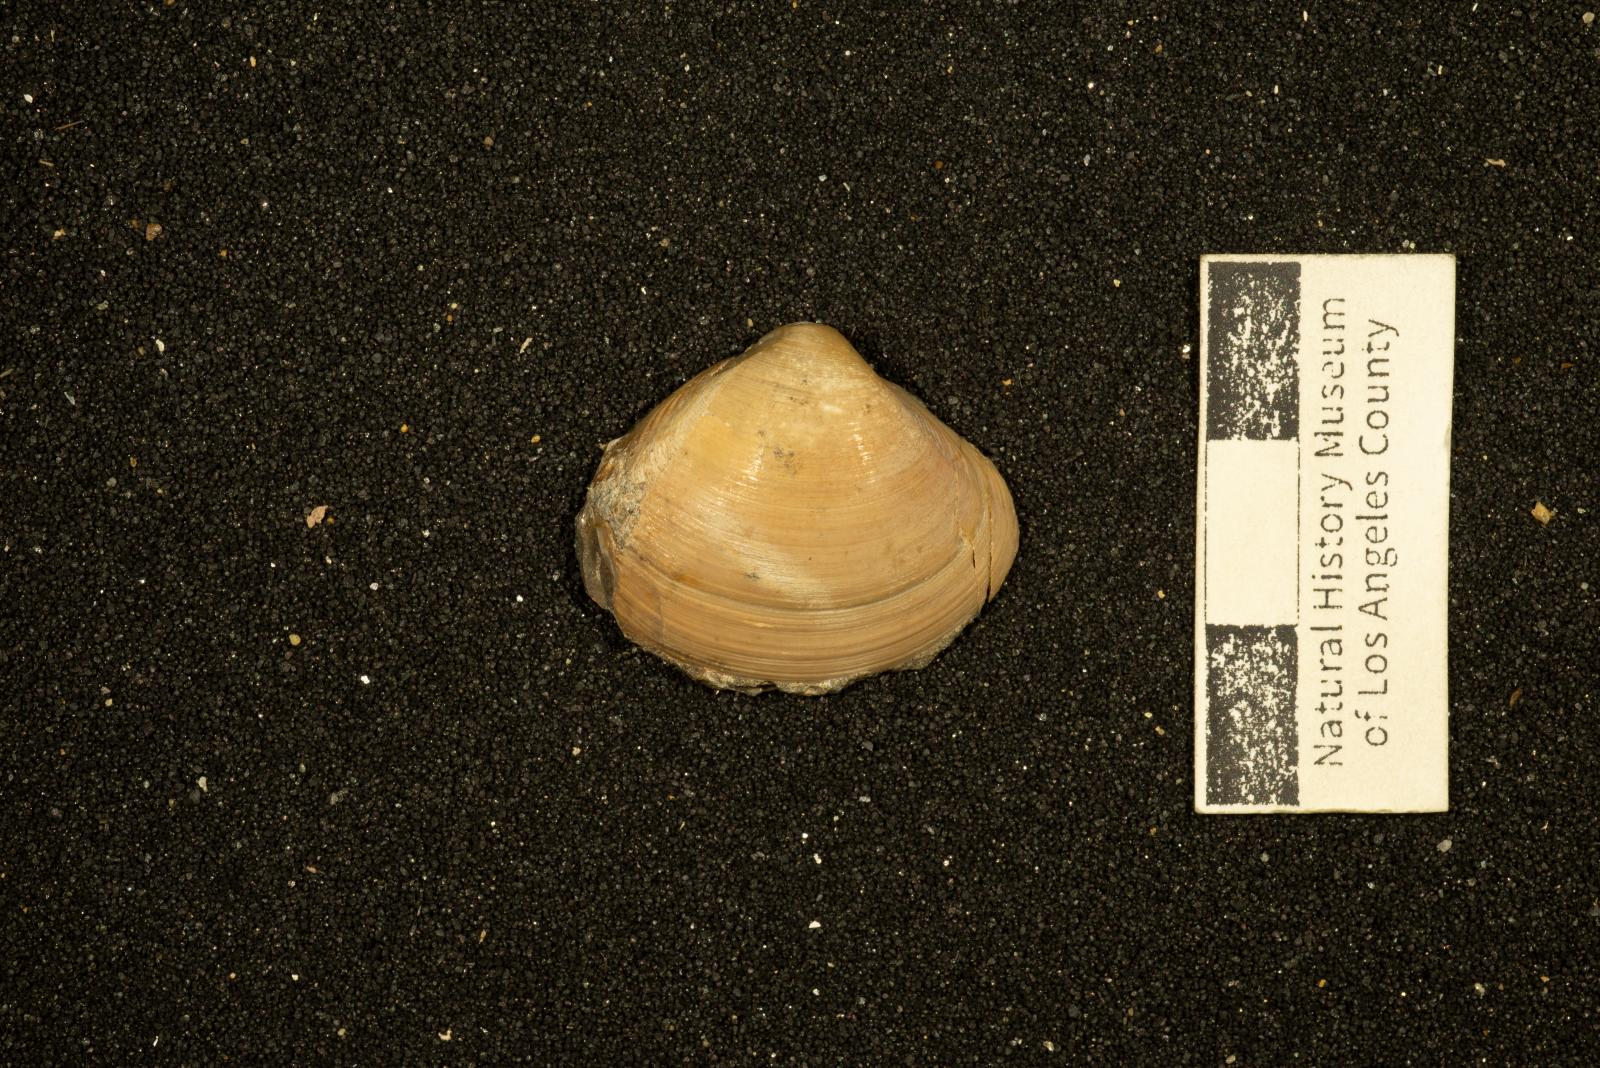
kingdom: Animalia
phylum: Mollusca
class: Bivalvia
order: Venerida
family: Mactridae
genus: Cymbophora
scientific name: Cymbophora Laevicardium suciense
